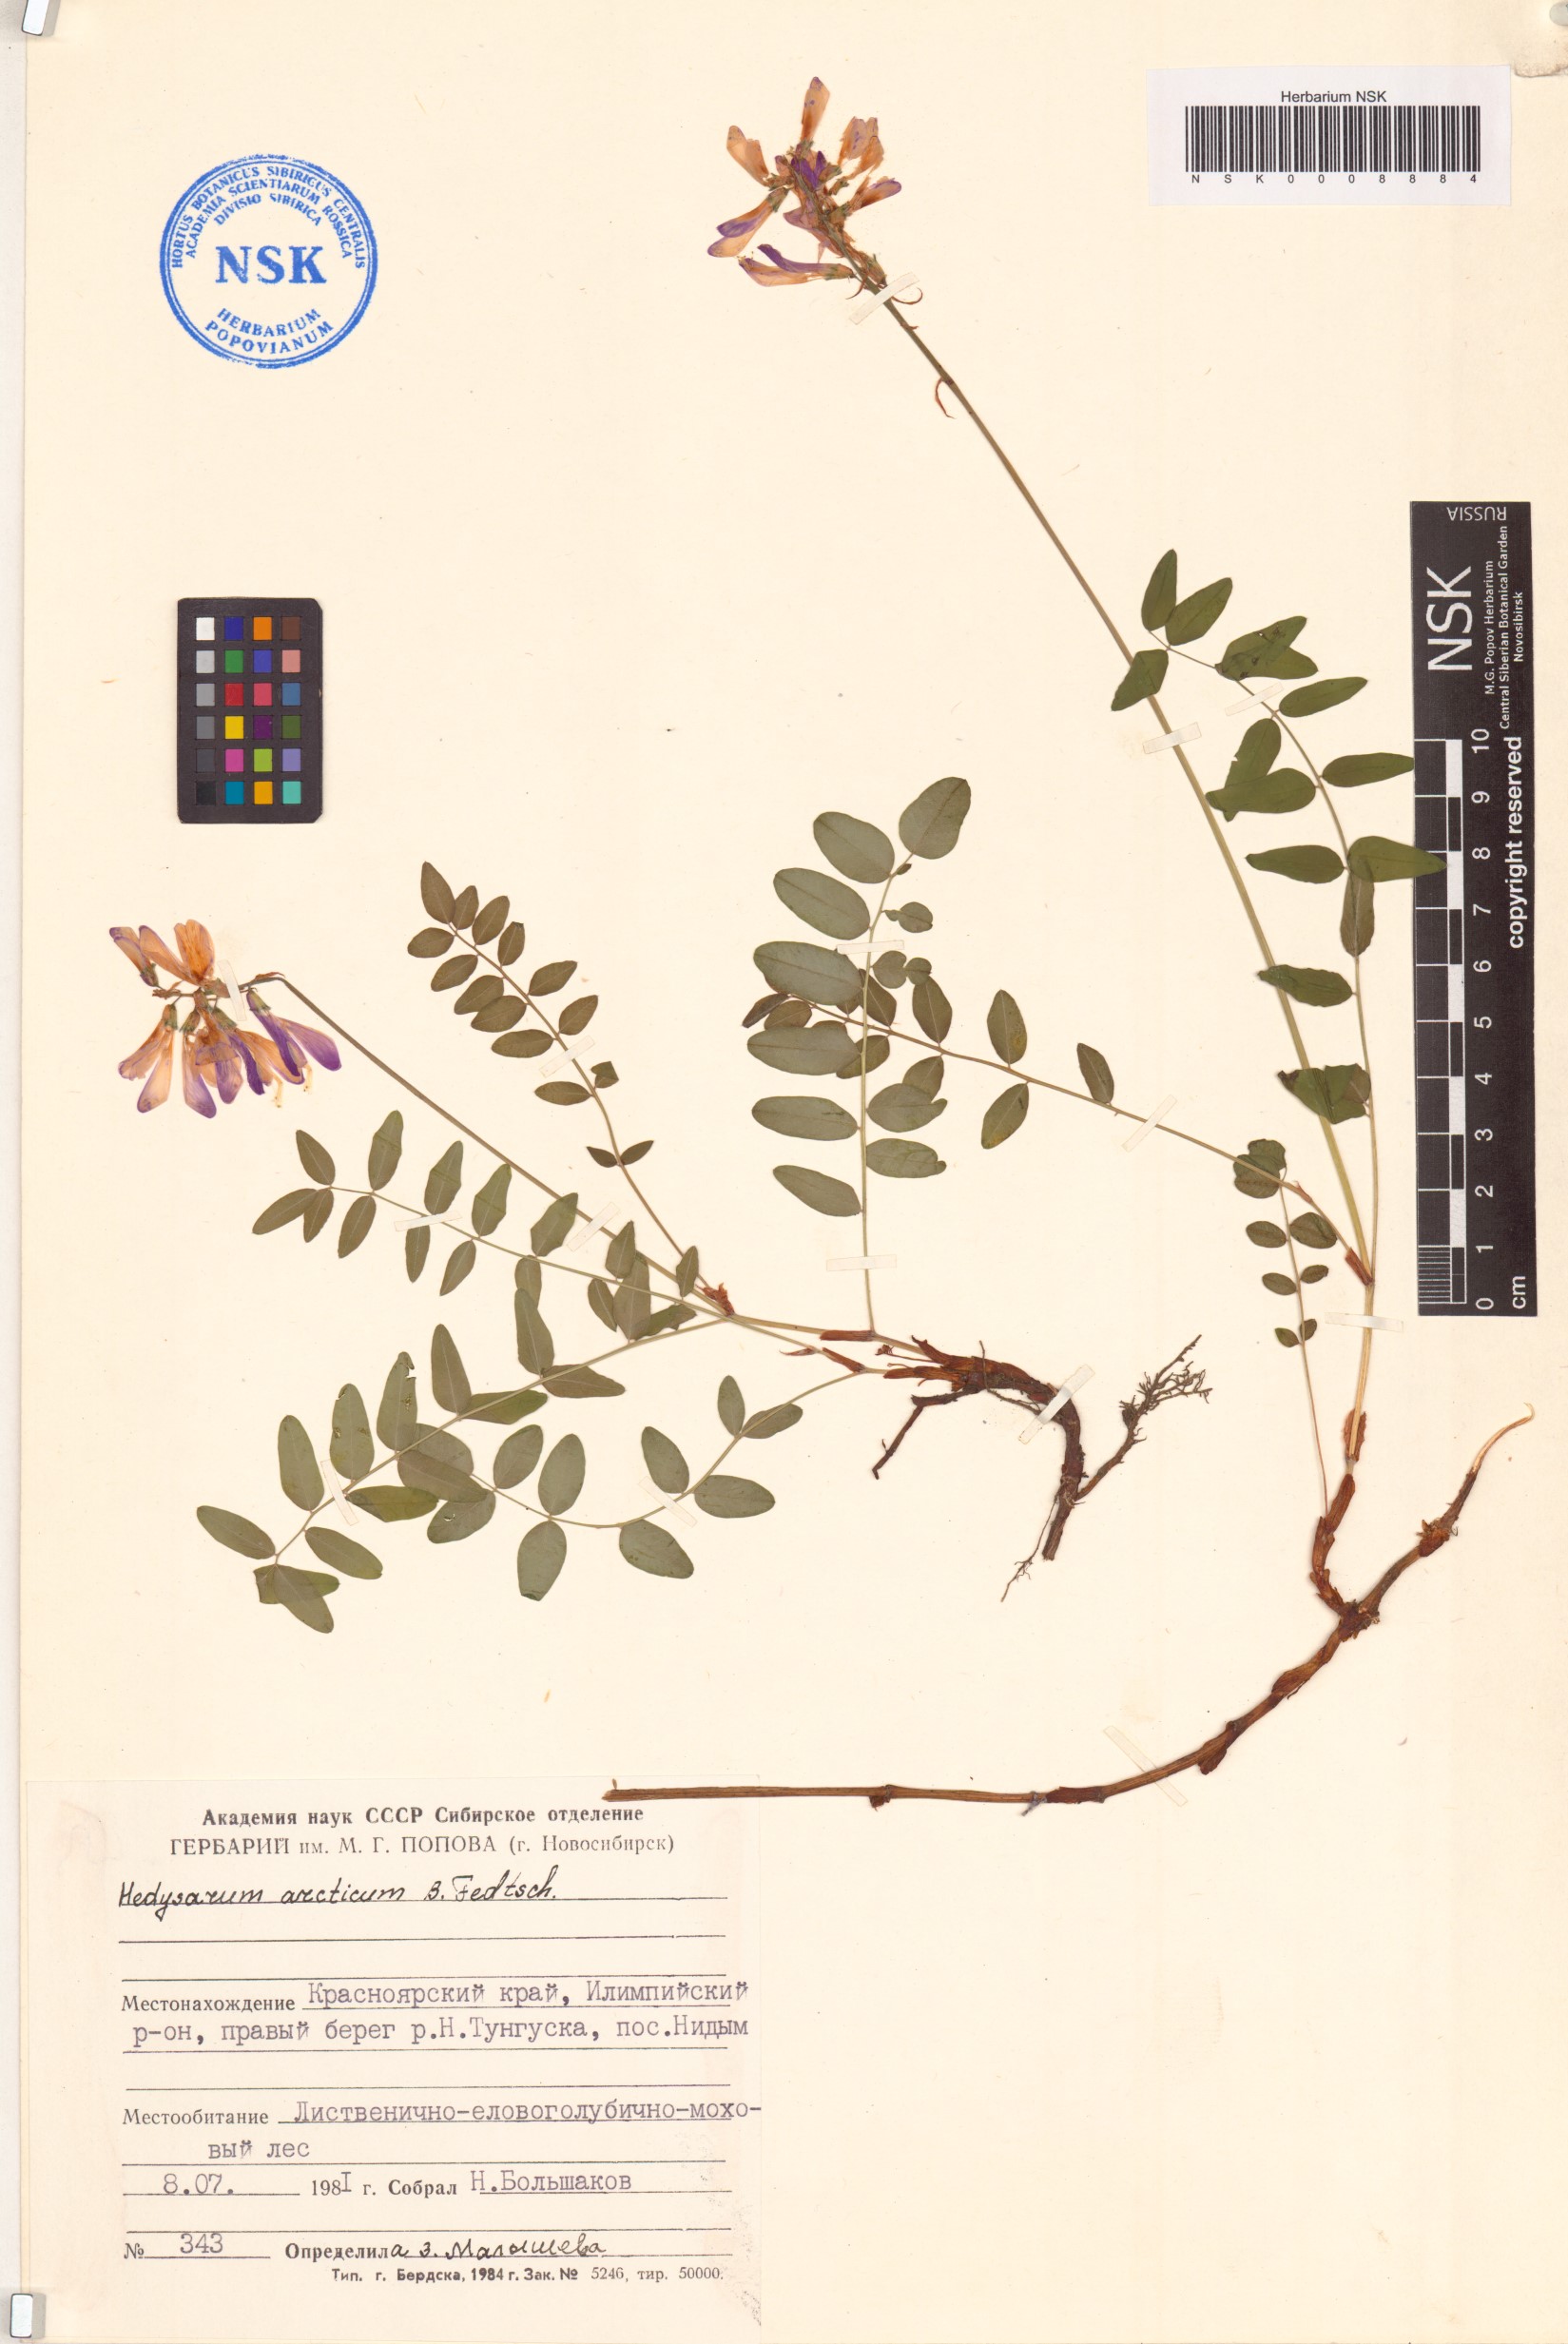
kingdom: Plantae
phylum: Tracheophyta
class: Magnoliopsida
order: Fabales
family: Fabaceae
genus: Hedysarum
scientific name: Hedysarum hedysaroides
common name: Alpine french-honeysuckle
